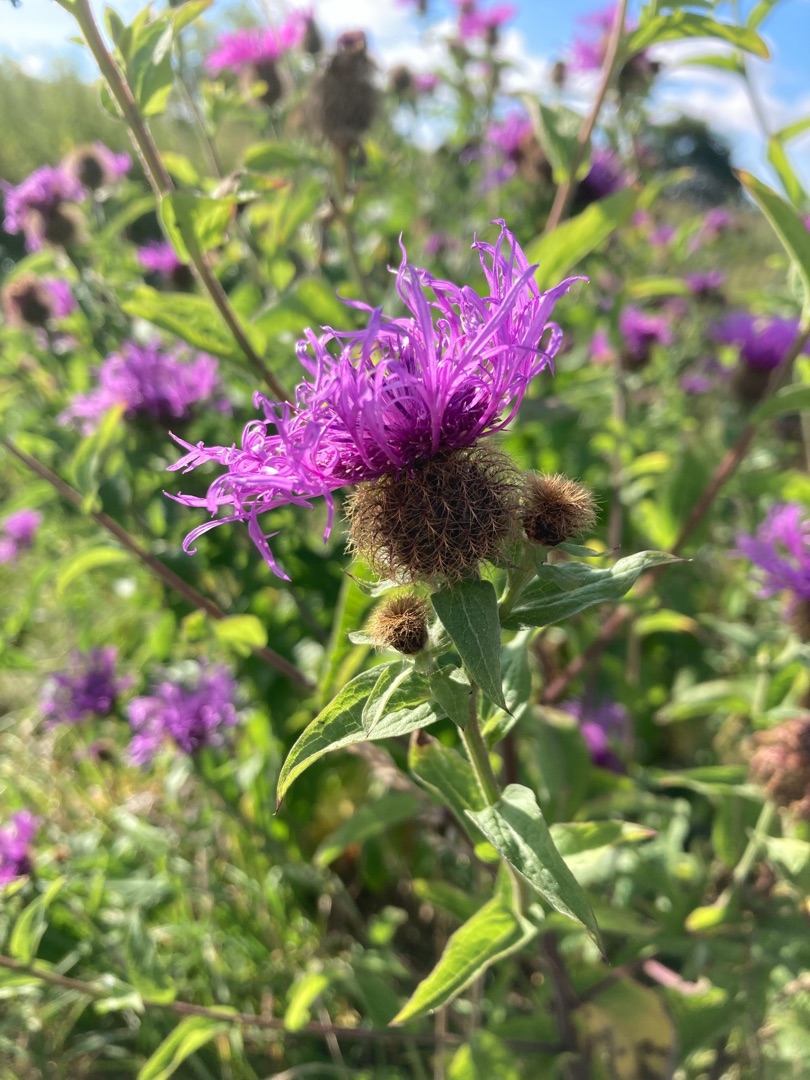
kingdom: Plantae
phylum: Tracheophyta
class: Magnoliopsida
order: Asterales
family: Asteraceae
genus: Centaurea
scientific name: Centaurea pseudophrygia
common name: Fjer-knopurt
